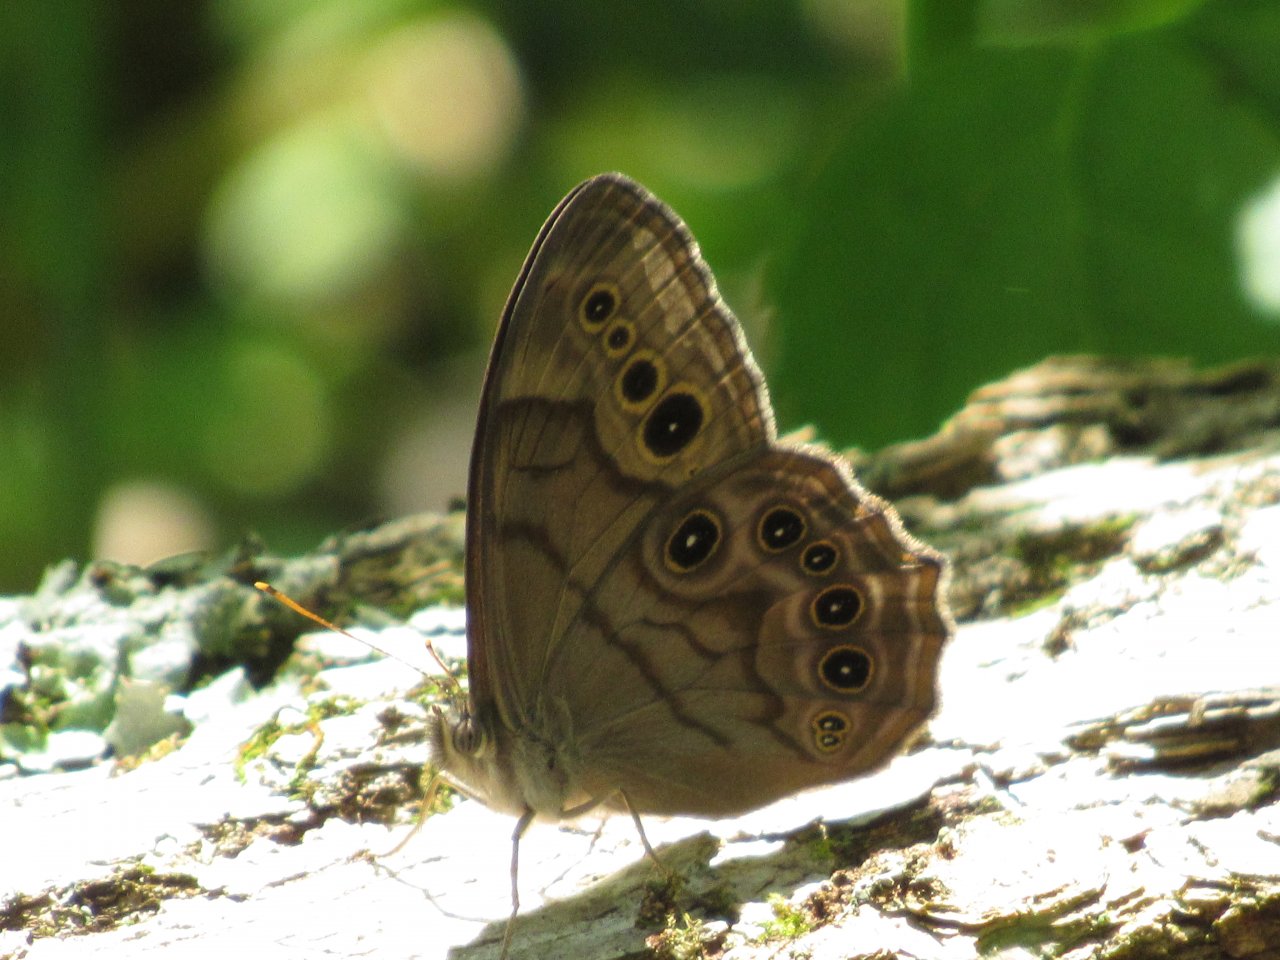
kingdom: Animalia
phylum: Arthropoda
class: Insecta
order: Lepidoptera
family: Nymphalidae
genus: Lethe
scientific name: Lethe anthedon
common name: Northern Pearly-Eye
